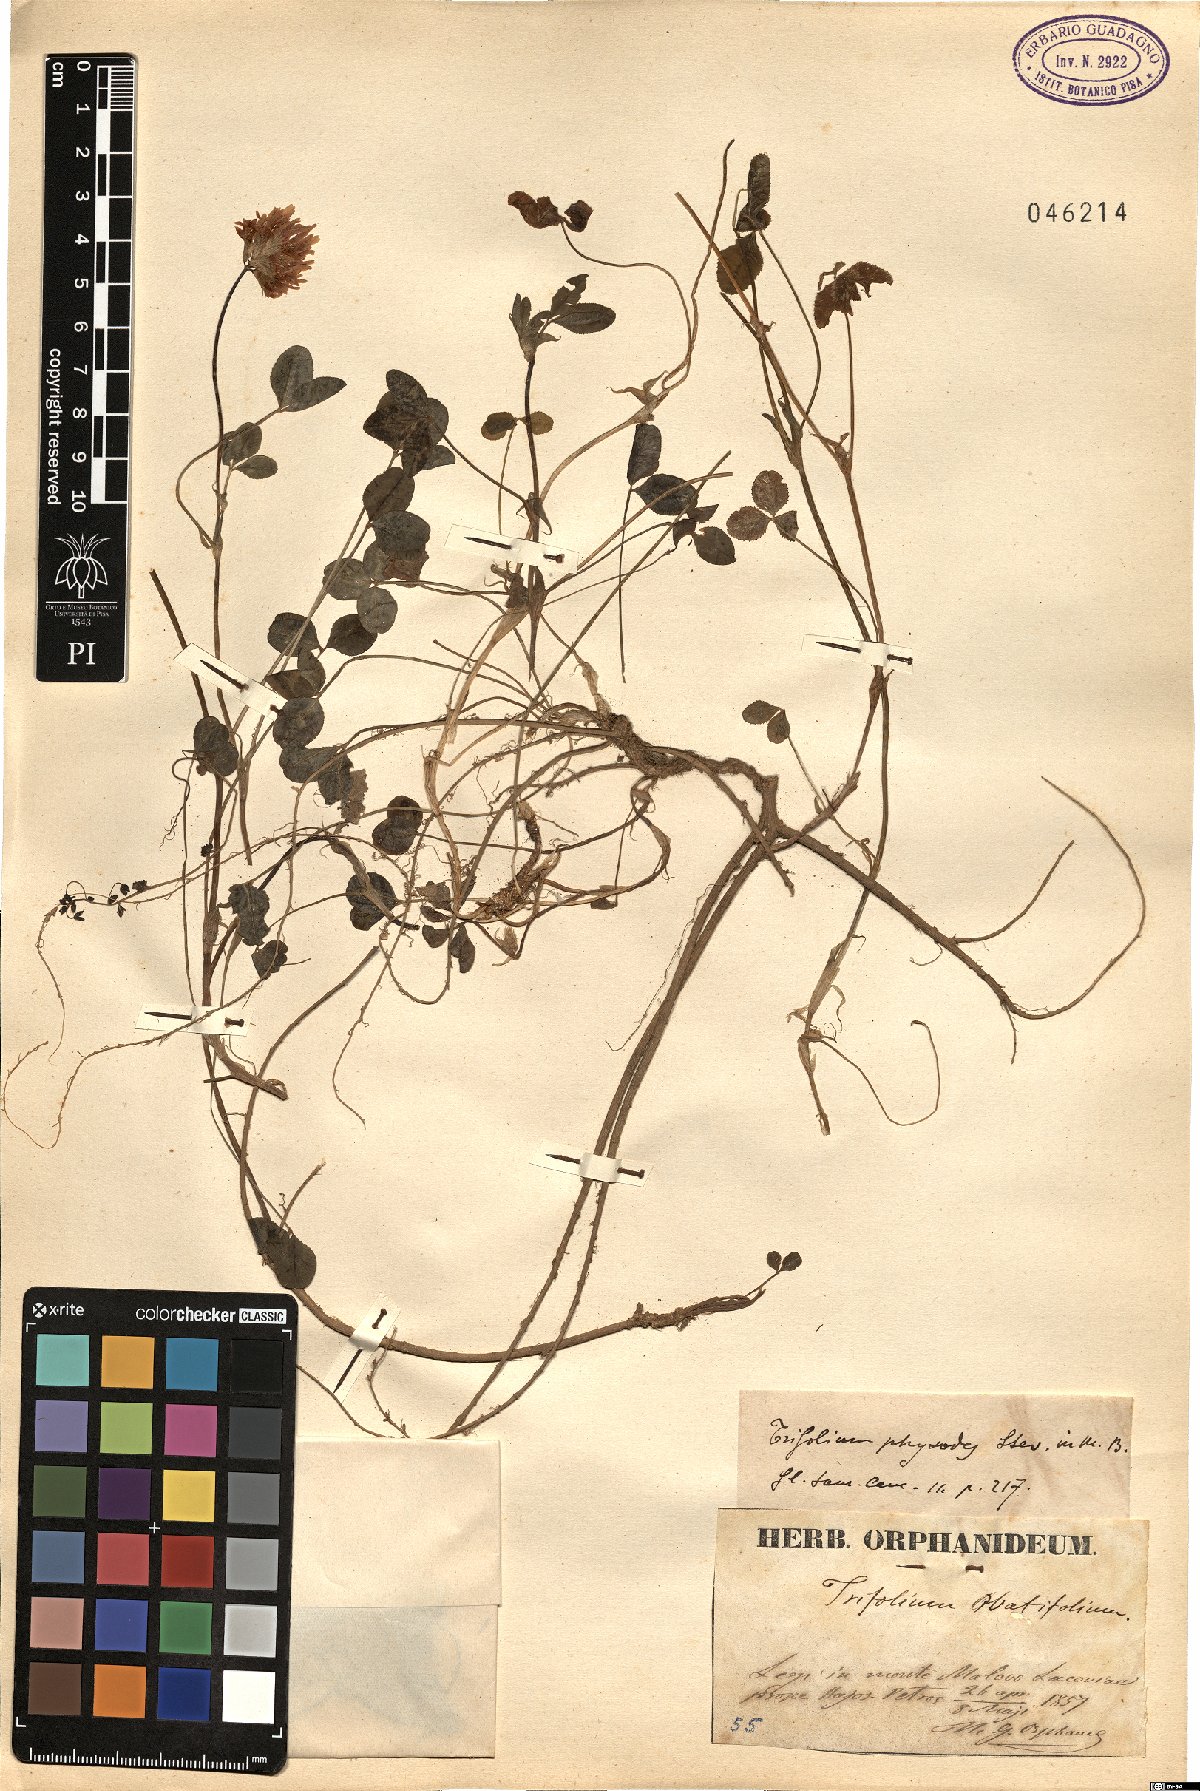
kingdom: Plantae
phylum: Tracheophyta
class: Magnoliopsida
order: Fabales
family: Fabaceae
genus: Trifolium
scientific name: Trifolium physodes
